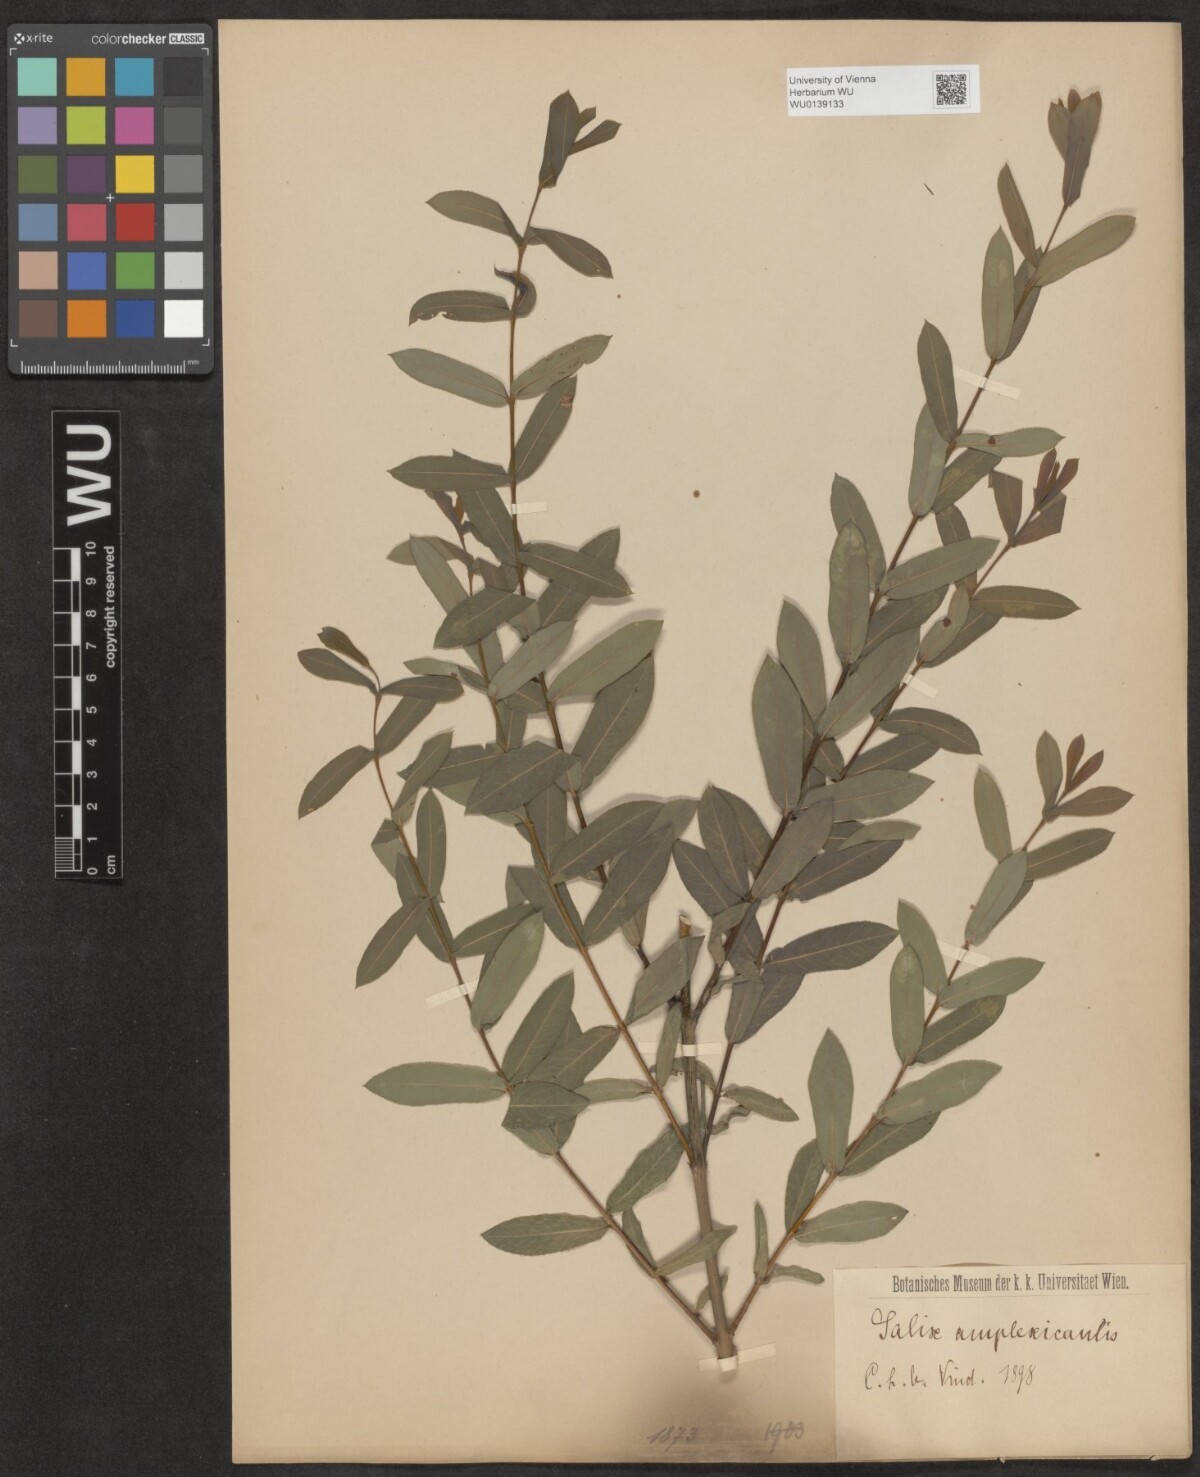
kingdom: Plantae
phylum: Tracheophyta
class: Magnoliopsida
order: Malpighiales
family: Salicaceae
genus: Salix
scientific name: Salix amplexicaulis
